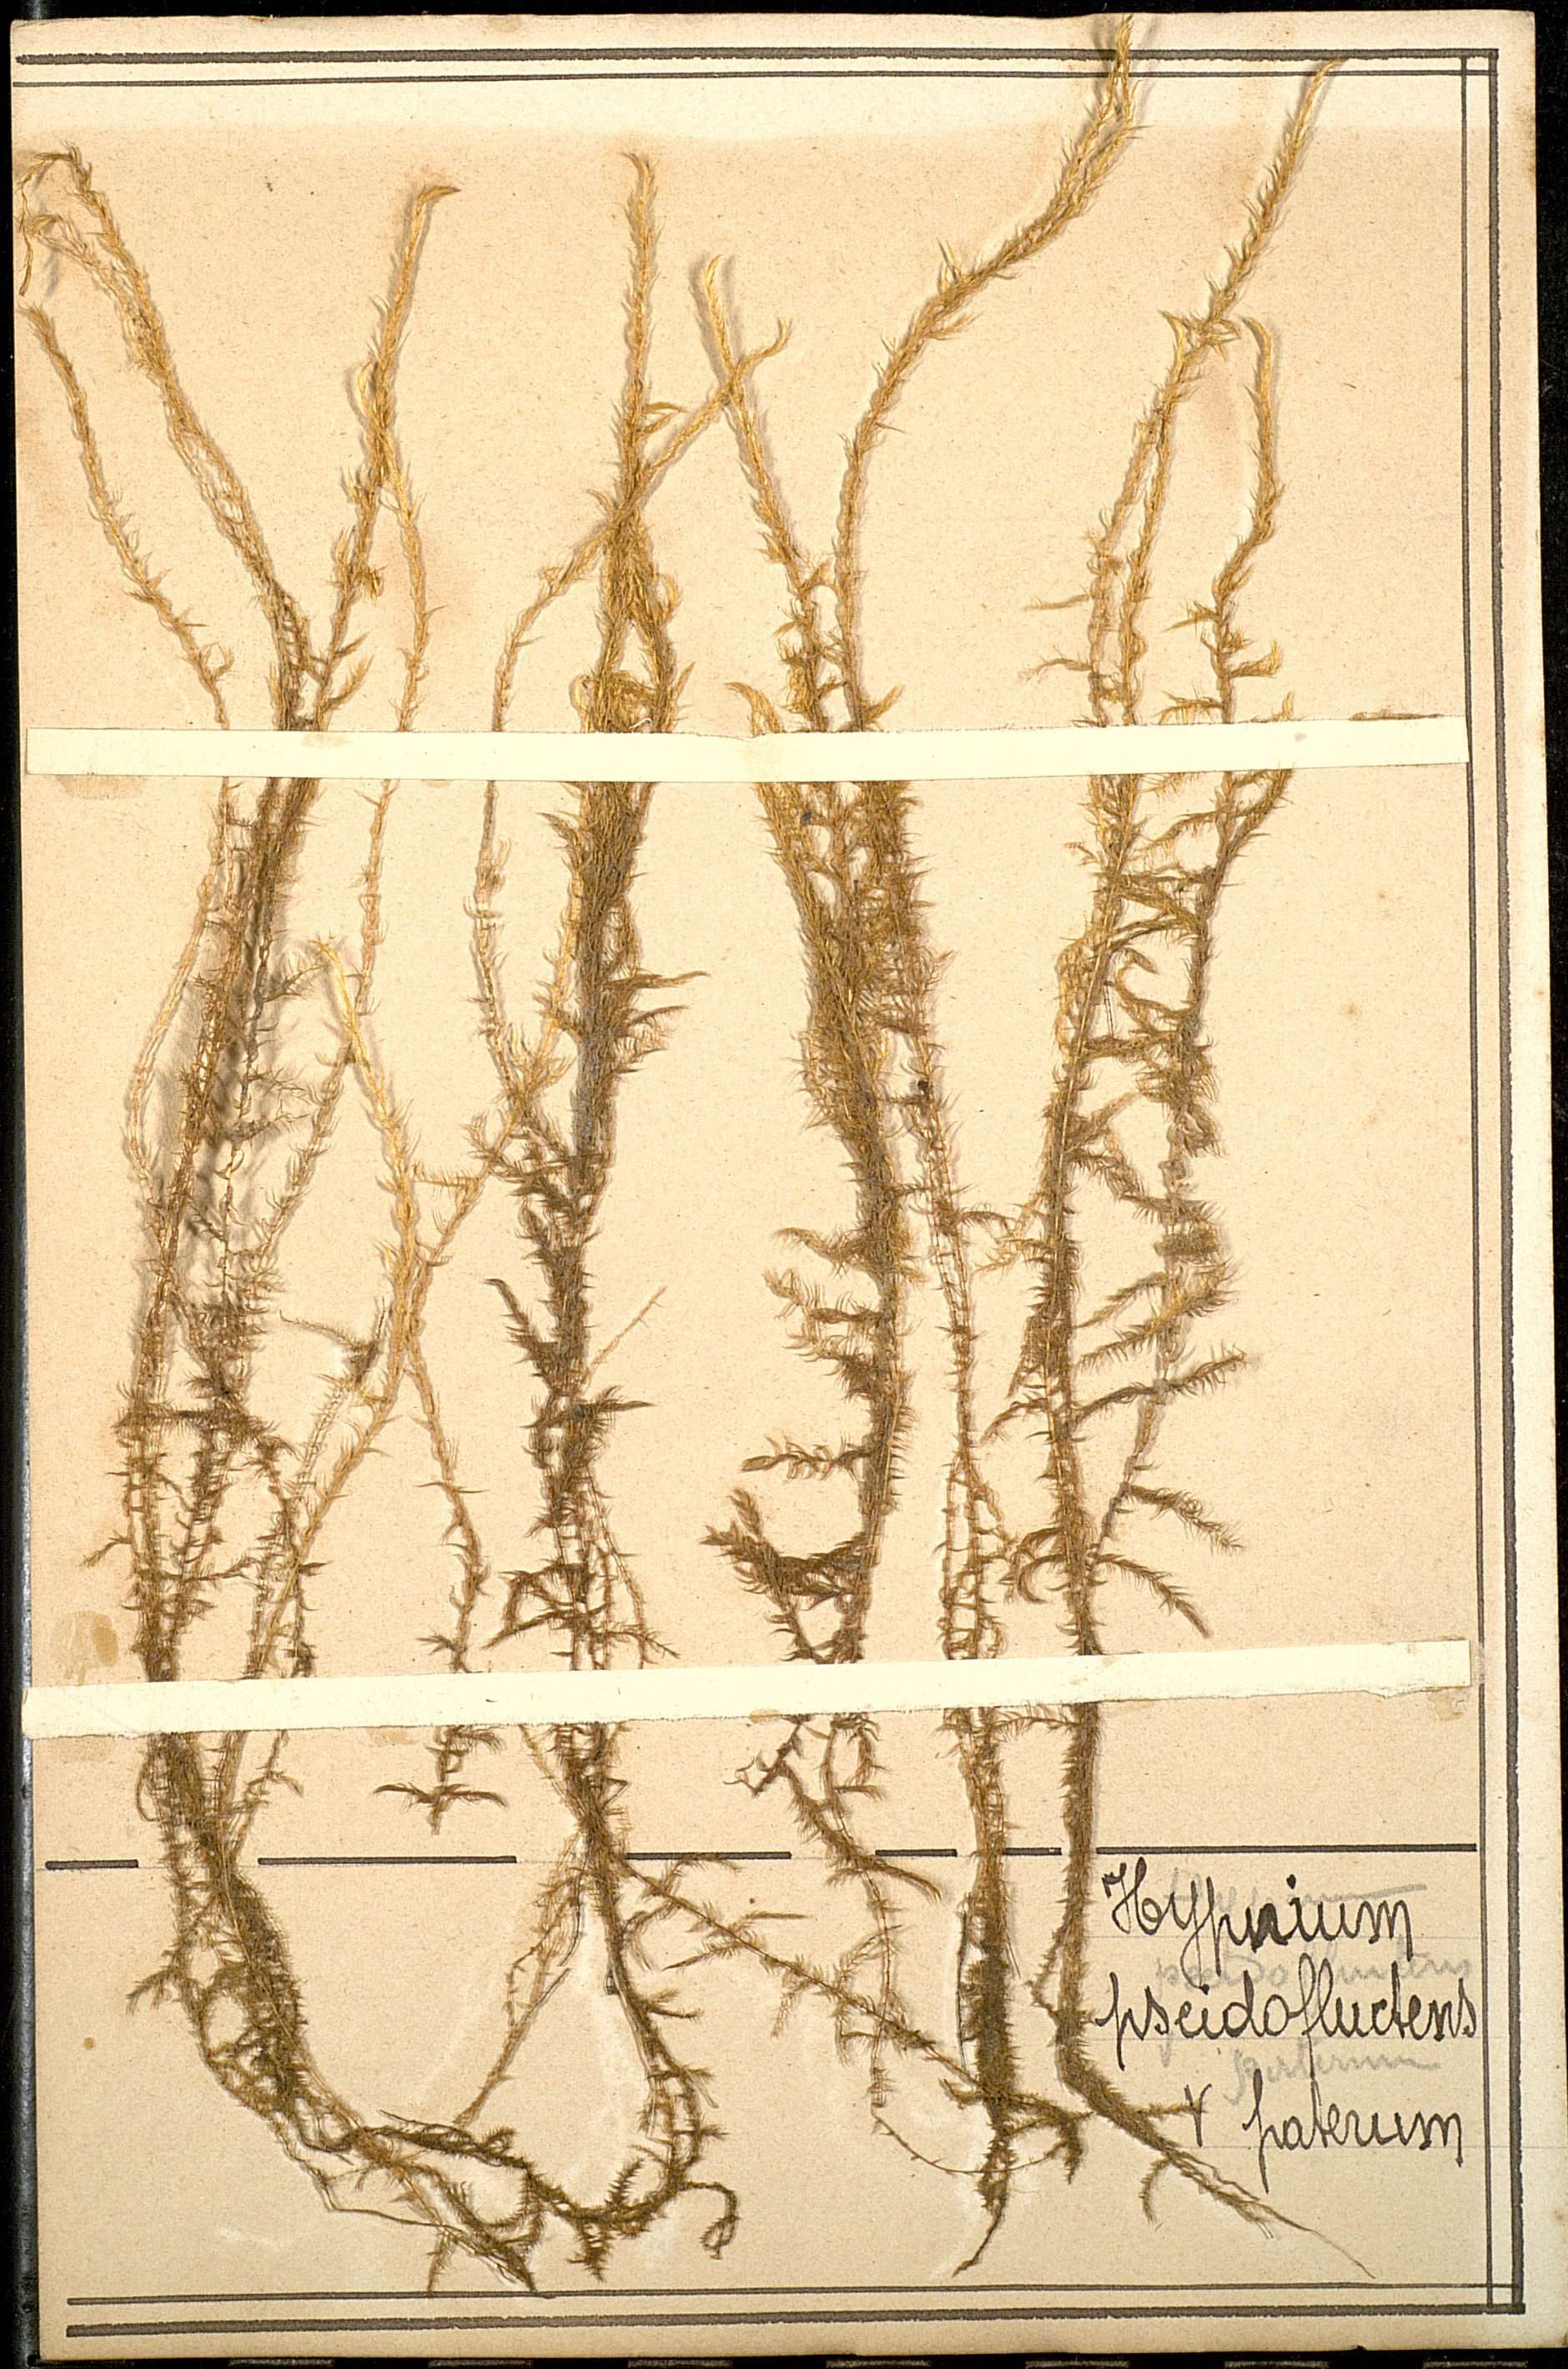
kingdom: Plantae
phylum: Bryophyta
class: Bryopsida
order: Hypnales
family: Calliergonaceae
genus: Warnstorfia
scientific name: Warnstorfia fluitans
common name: Floating hook moss
